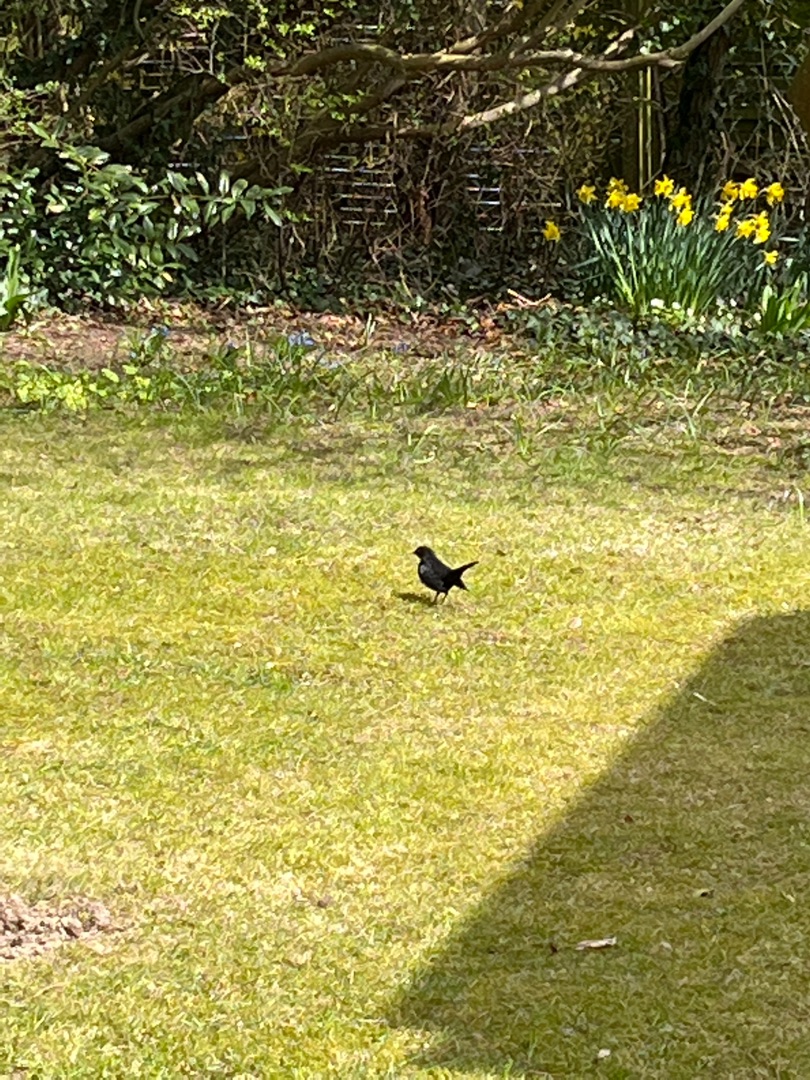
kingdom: Animalia
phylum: Chordata
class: Aves
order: Passeriformes
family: Turdidae
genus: Turdus
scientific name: Turdus merula
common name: Solsort
